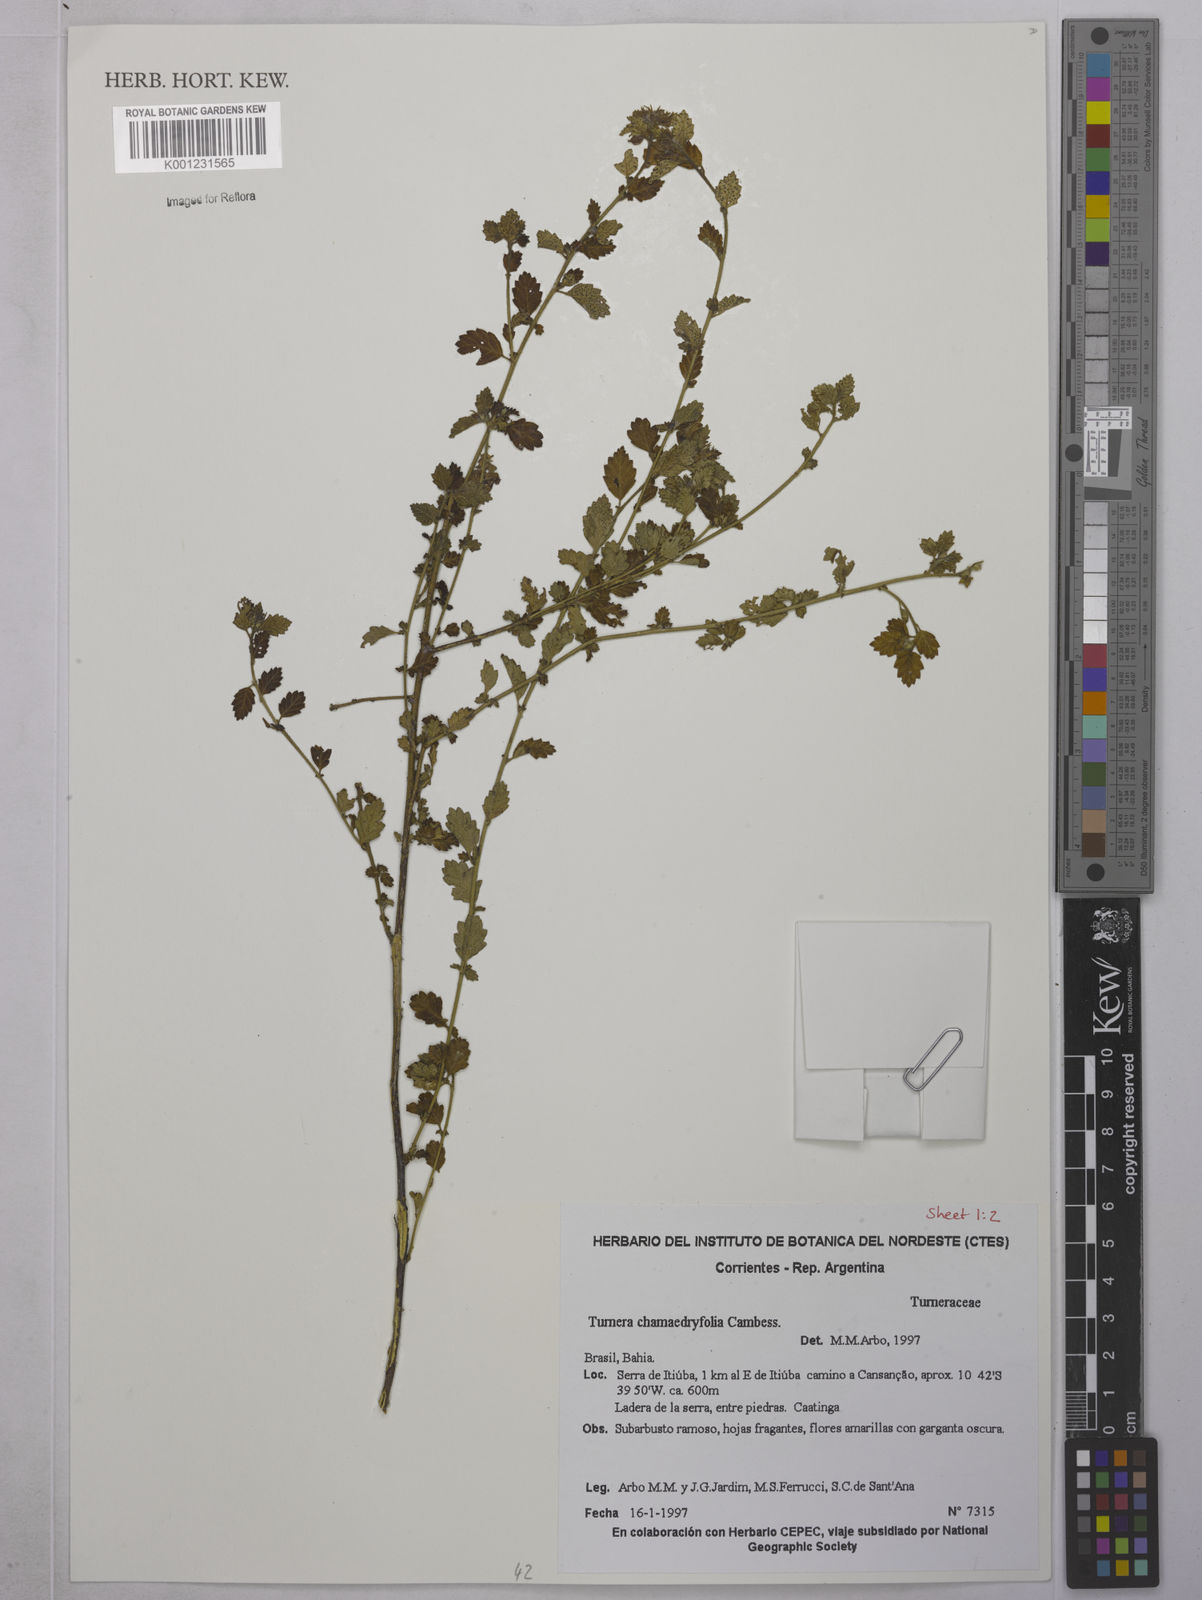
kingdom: Plantae
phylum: Tracheophyta
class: Magnoliopsida
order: Malpighiales
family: Turneraceae
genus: Turnera
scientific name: Turnera chamaedrifolia
